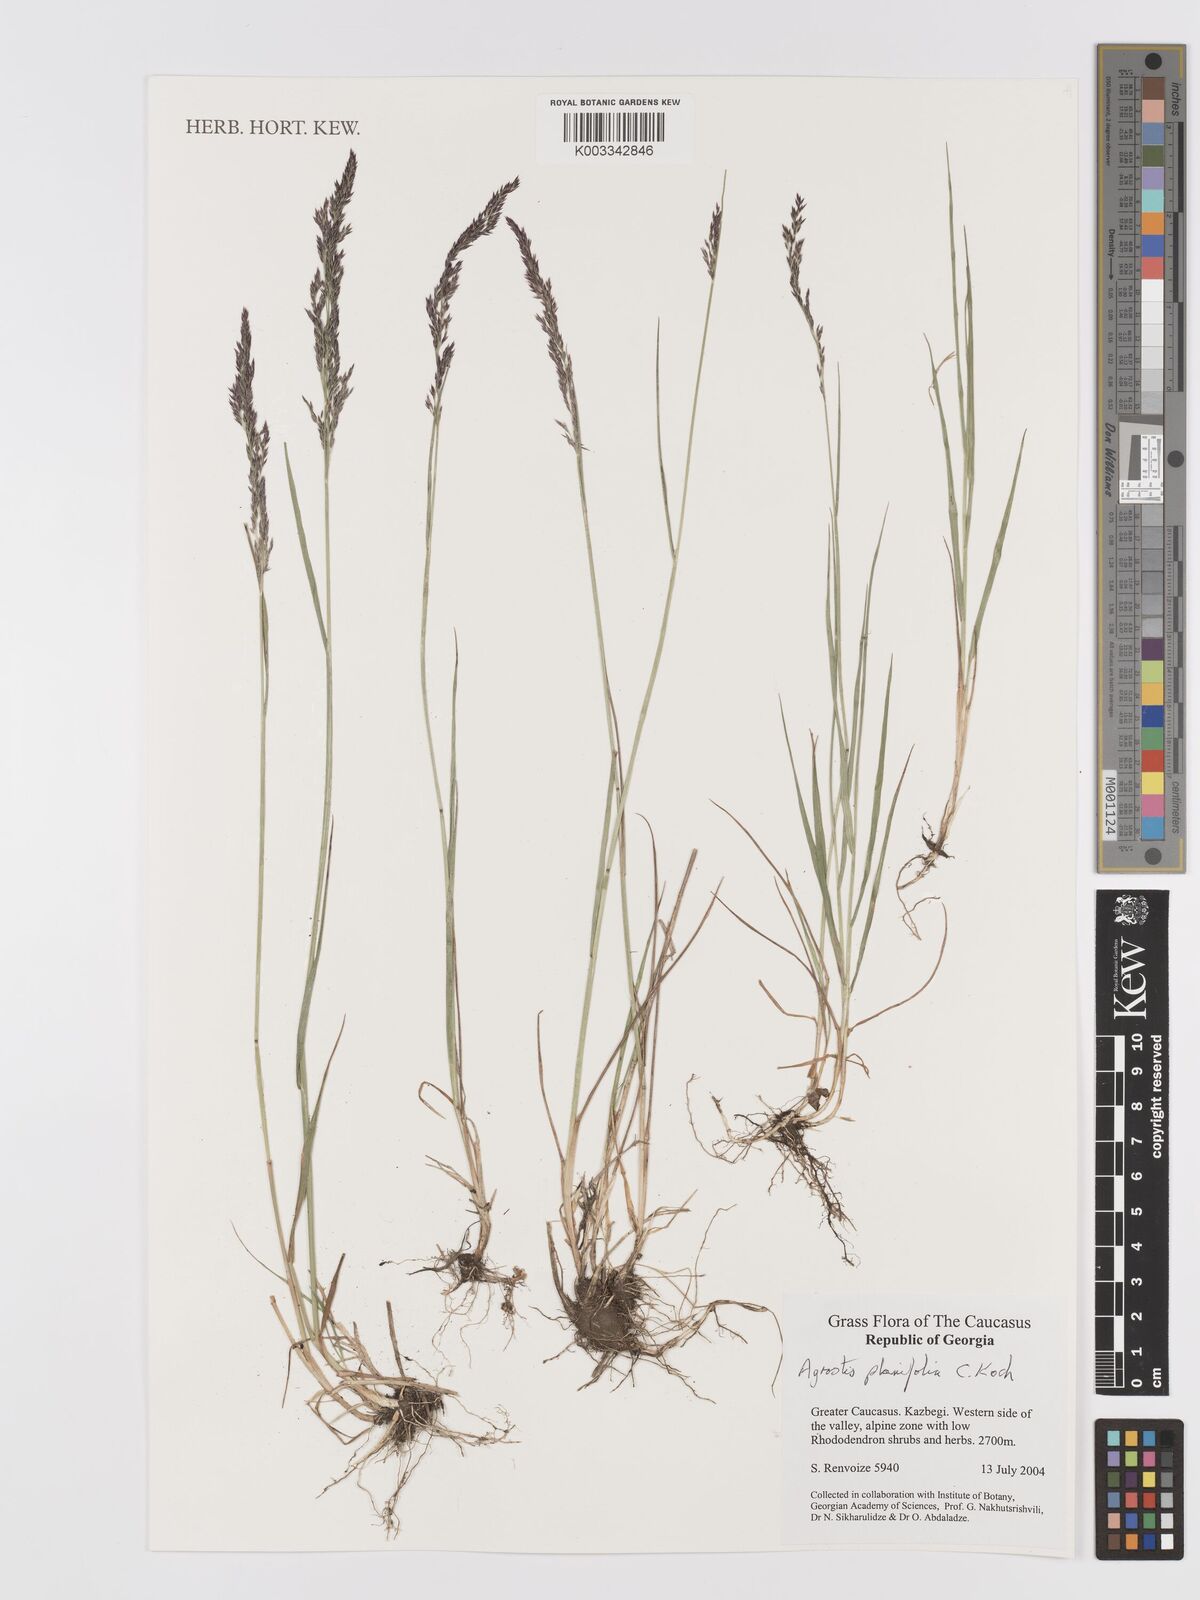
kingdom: Plantae
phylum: Tracheophyta
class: Liliopsida
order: Poales
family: Poaceae
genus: Agrostis
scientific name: Agrostis vinealis
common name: Brown bent
